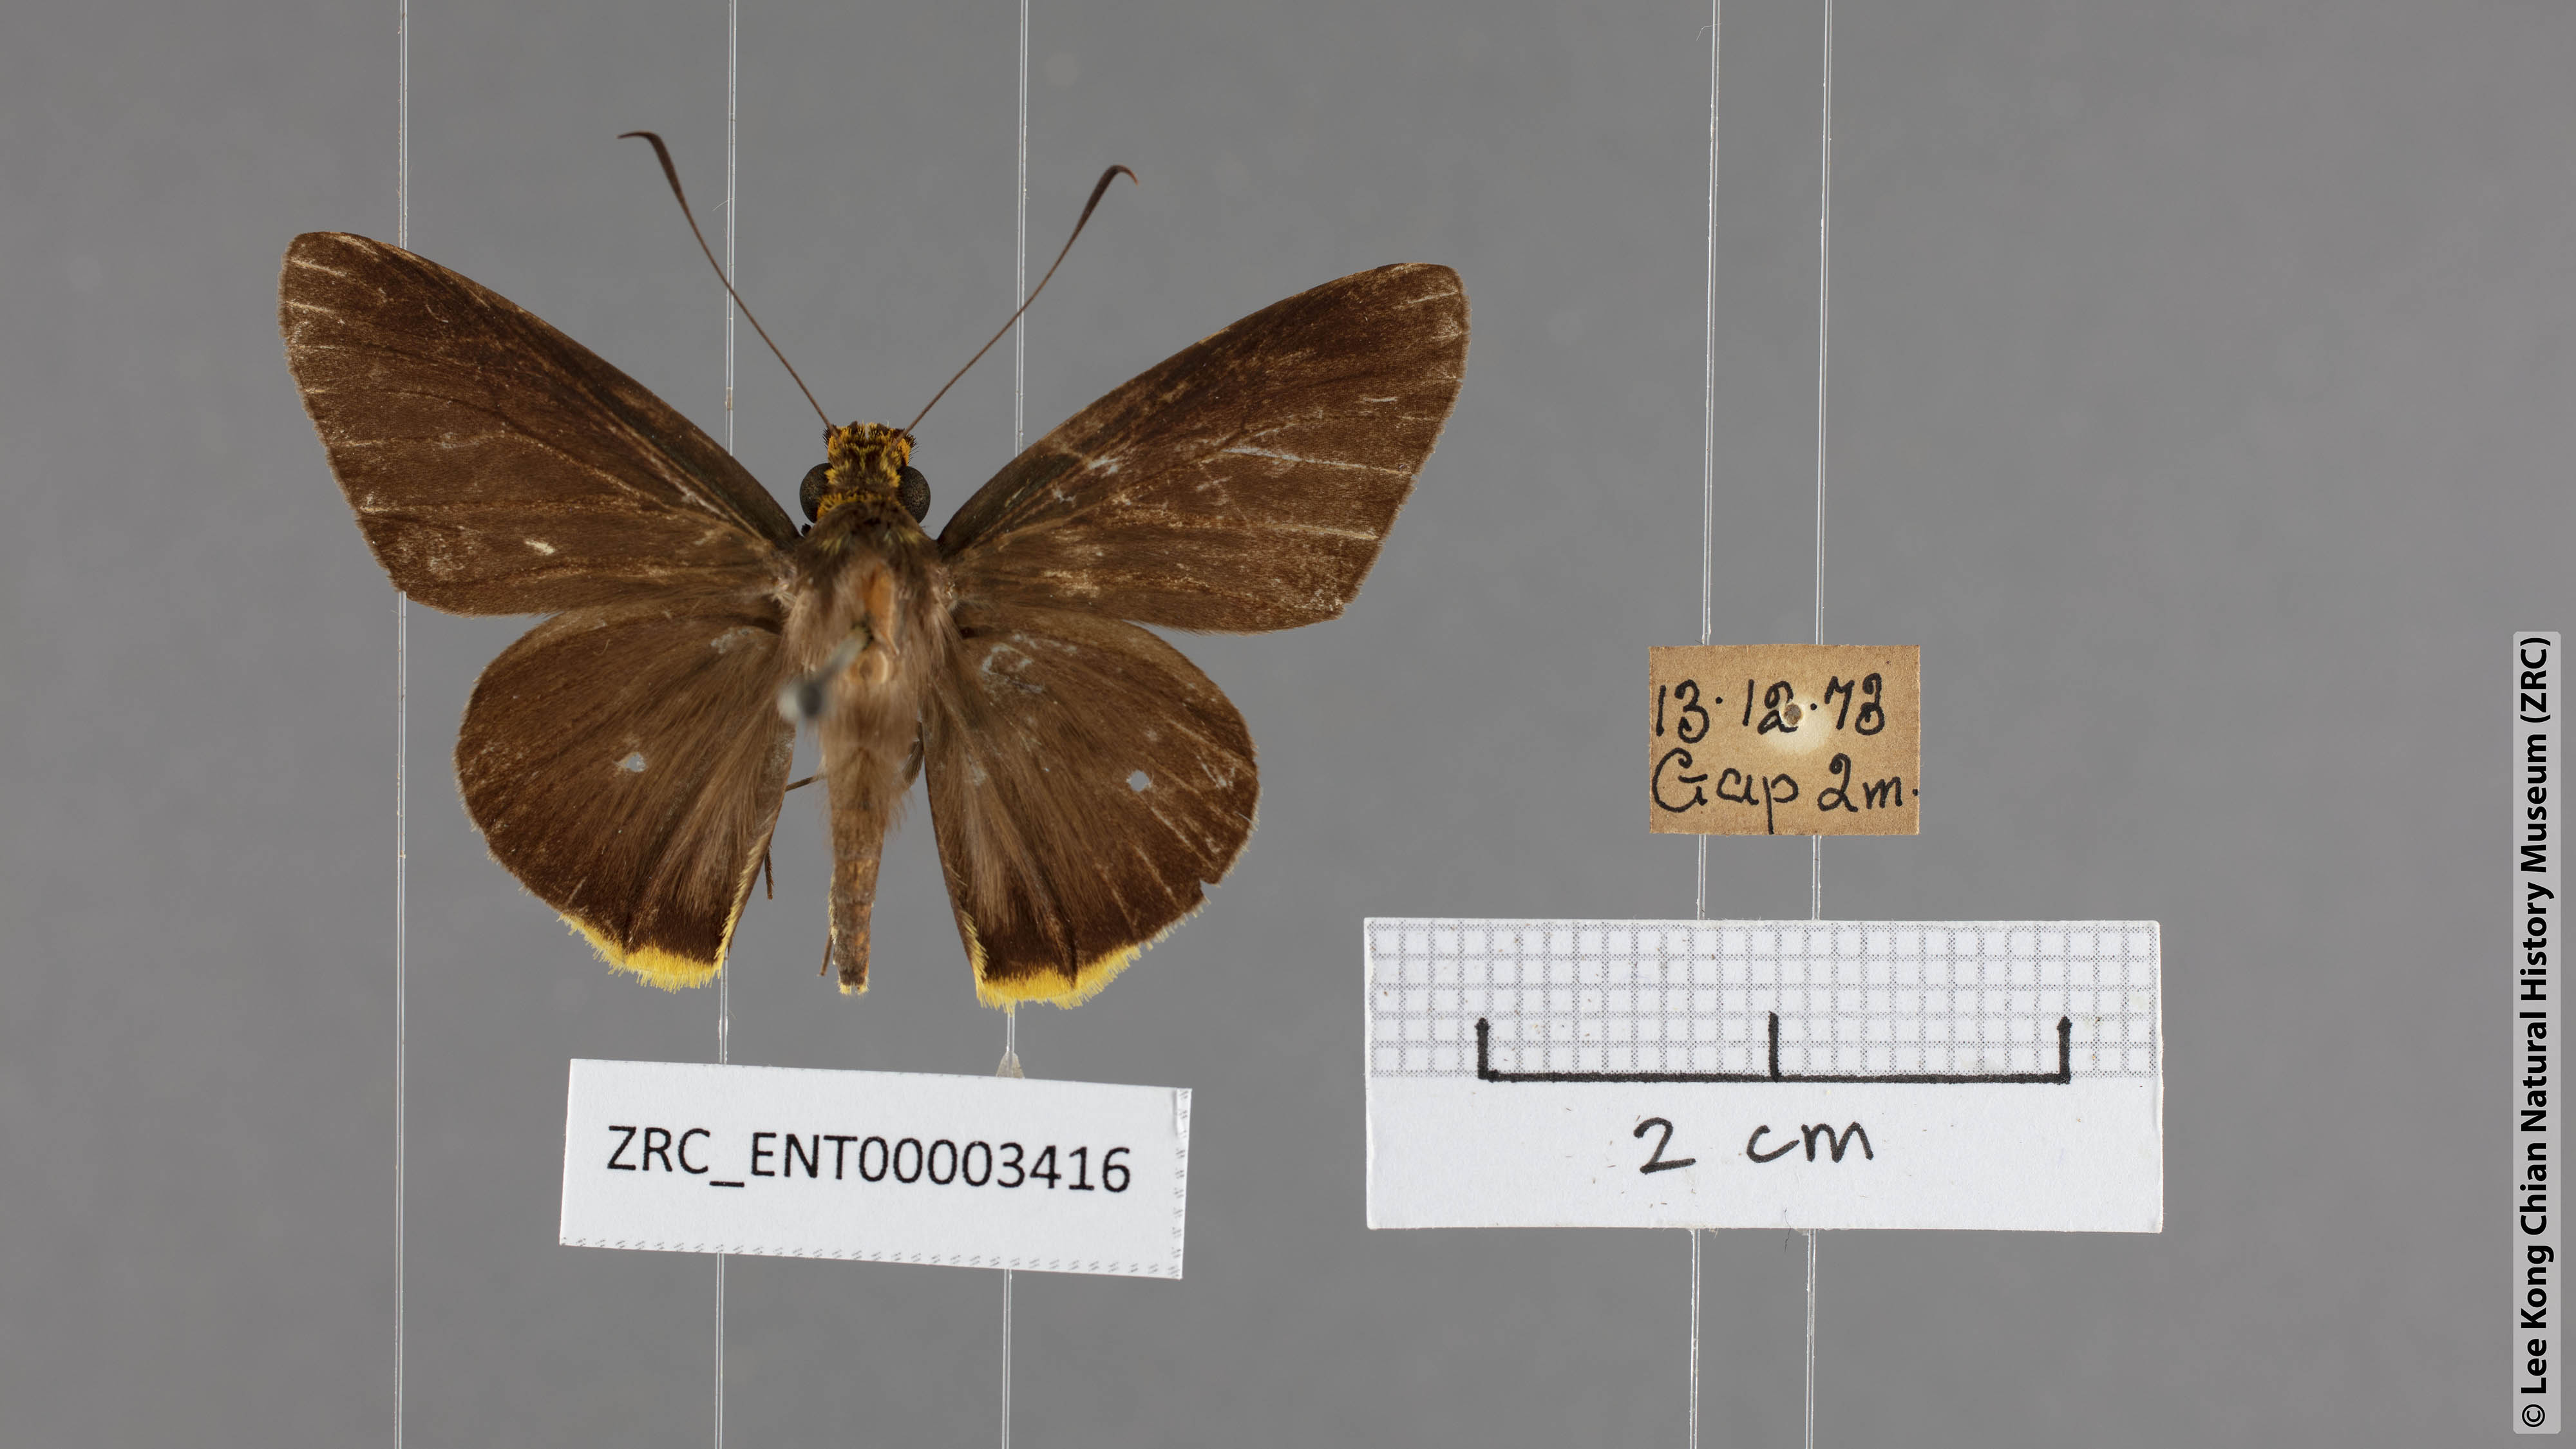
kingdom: Animalia
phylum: Arthropoda
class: Insecta
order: Lepidoptera
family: Hesperiidae
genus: Pirdana
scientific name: Pirdana hyela
